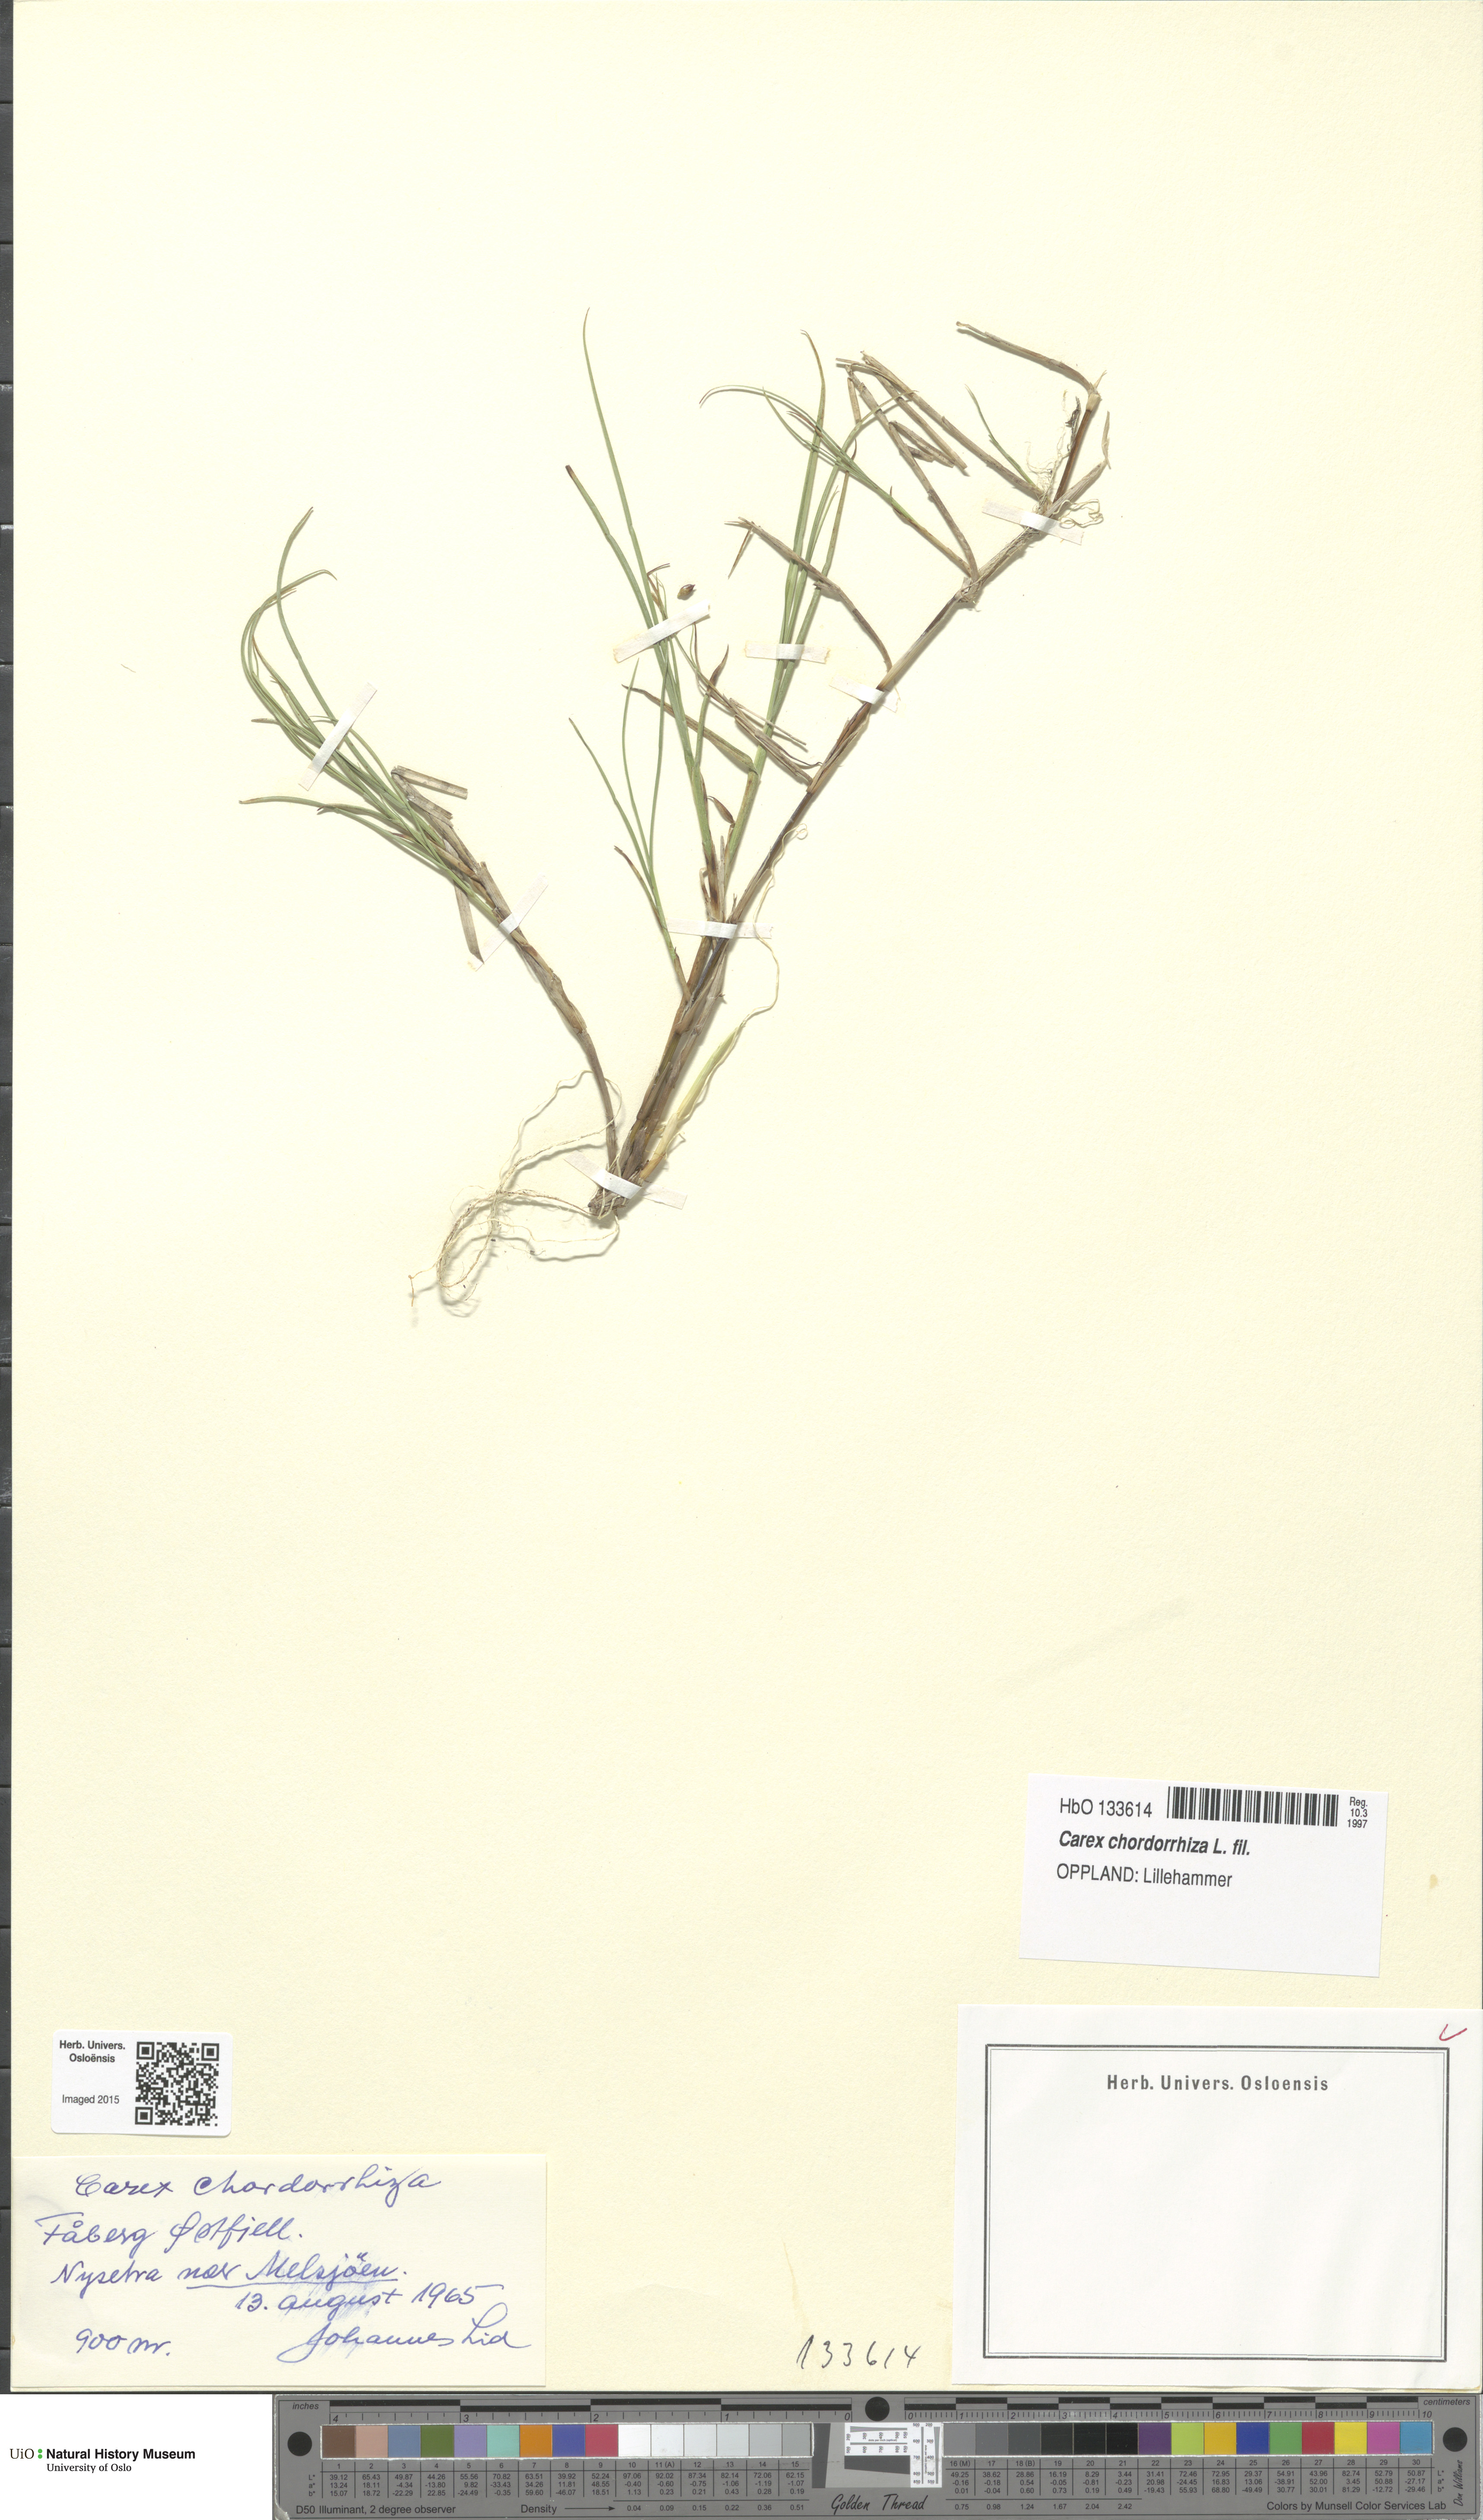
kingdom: Plantae
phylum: Tracheophyta
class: Liliopsida
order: Poales
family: Cyperaceae
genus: Carex
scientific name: Carex chordorrhiza
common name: String sedge
